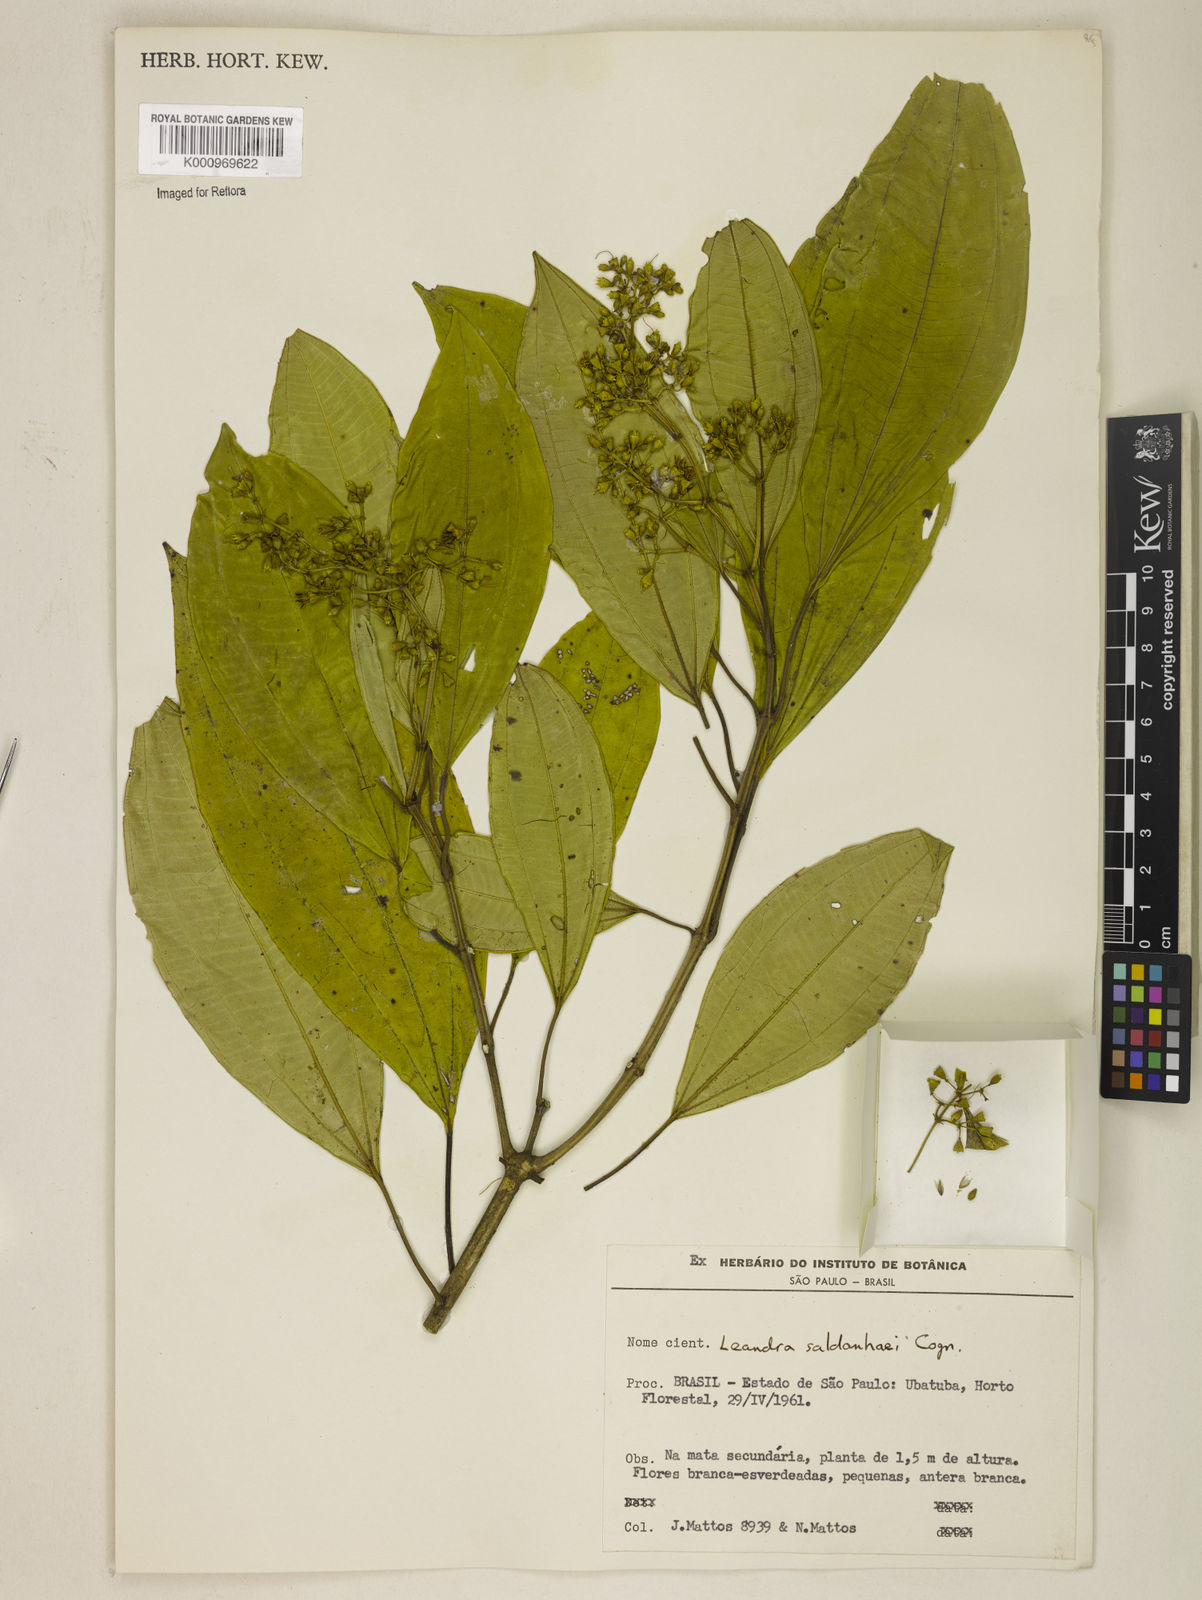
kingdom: Plantae
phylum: Tracheophyta
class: Magnoliopsida
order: Myrtales
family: Melastomataceae
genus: Miconia
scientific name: Miconia leasaldanhae
